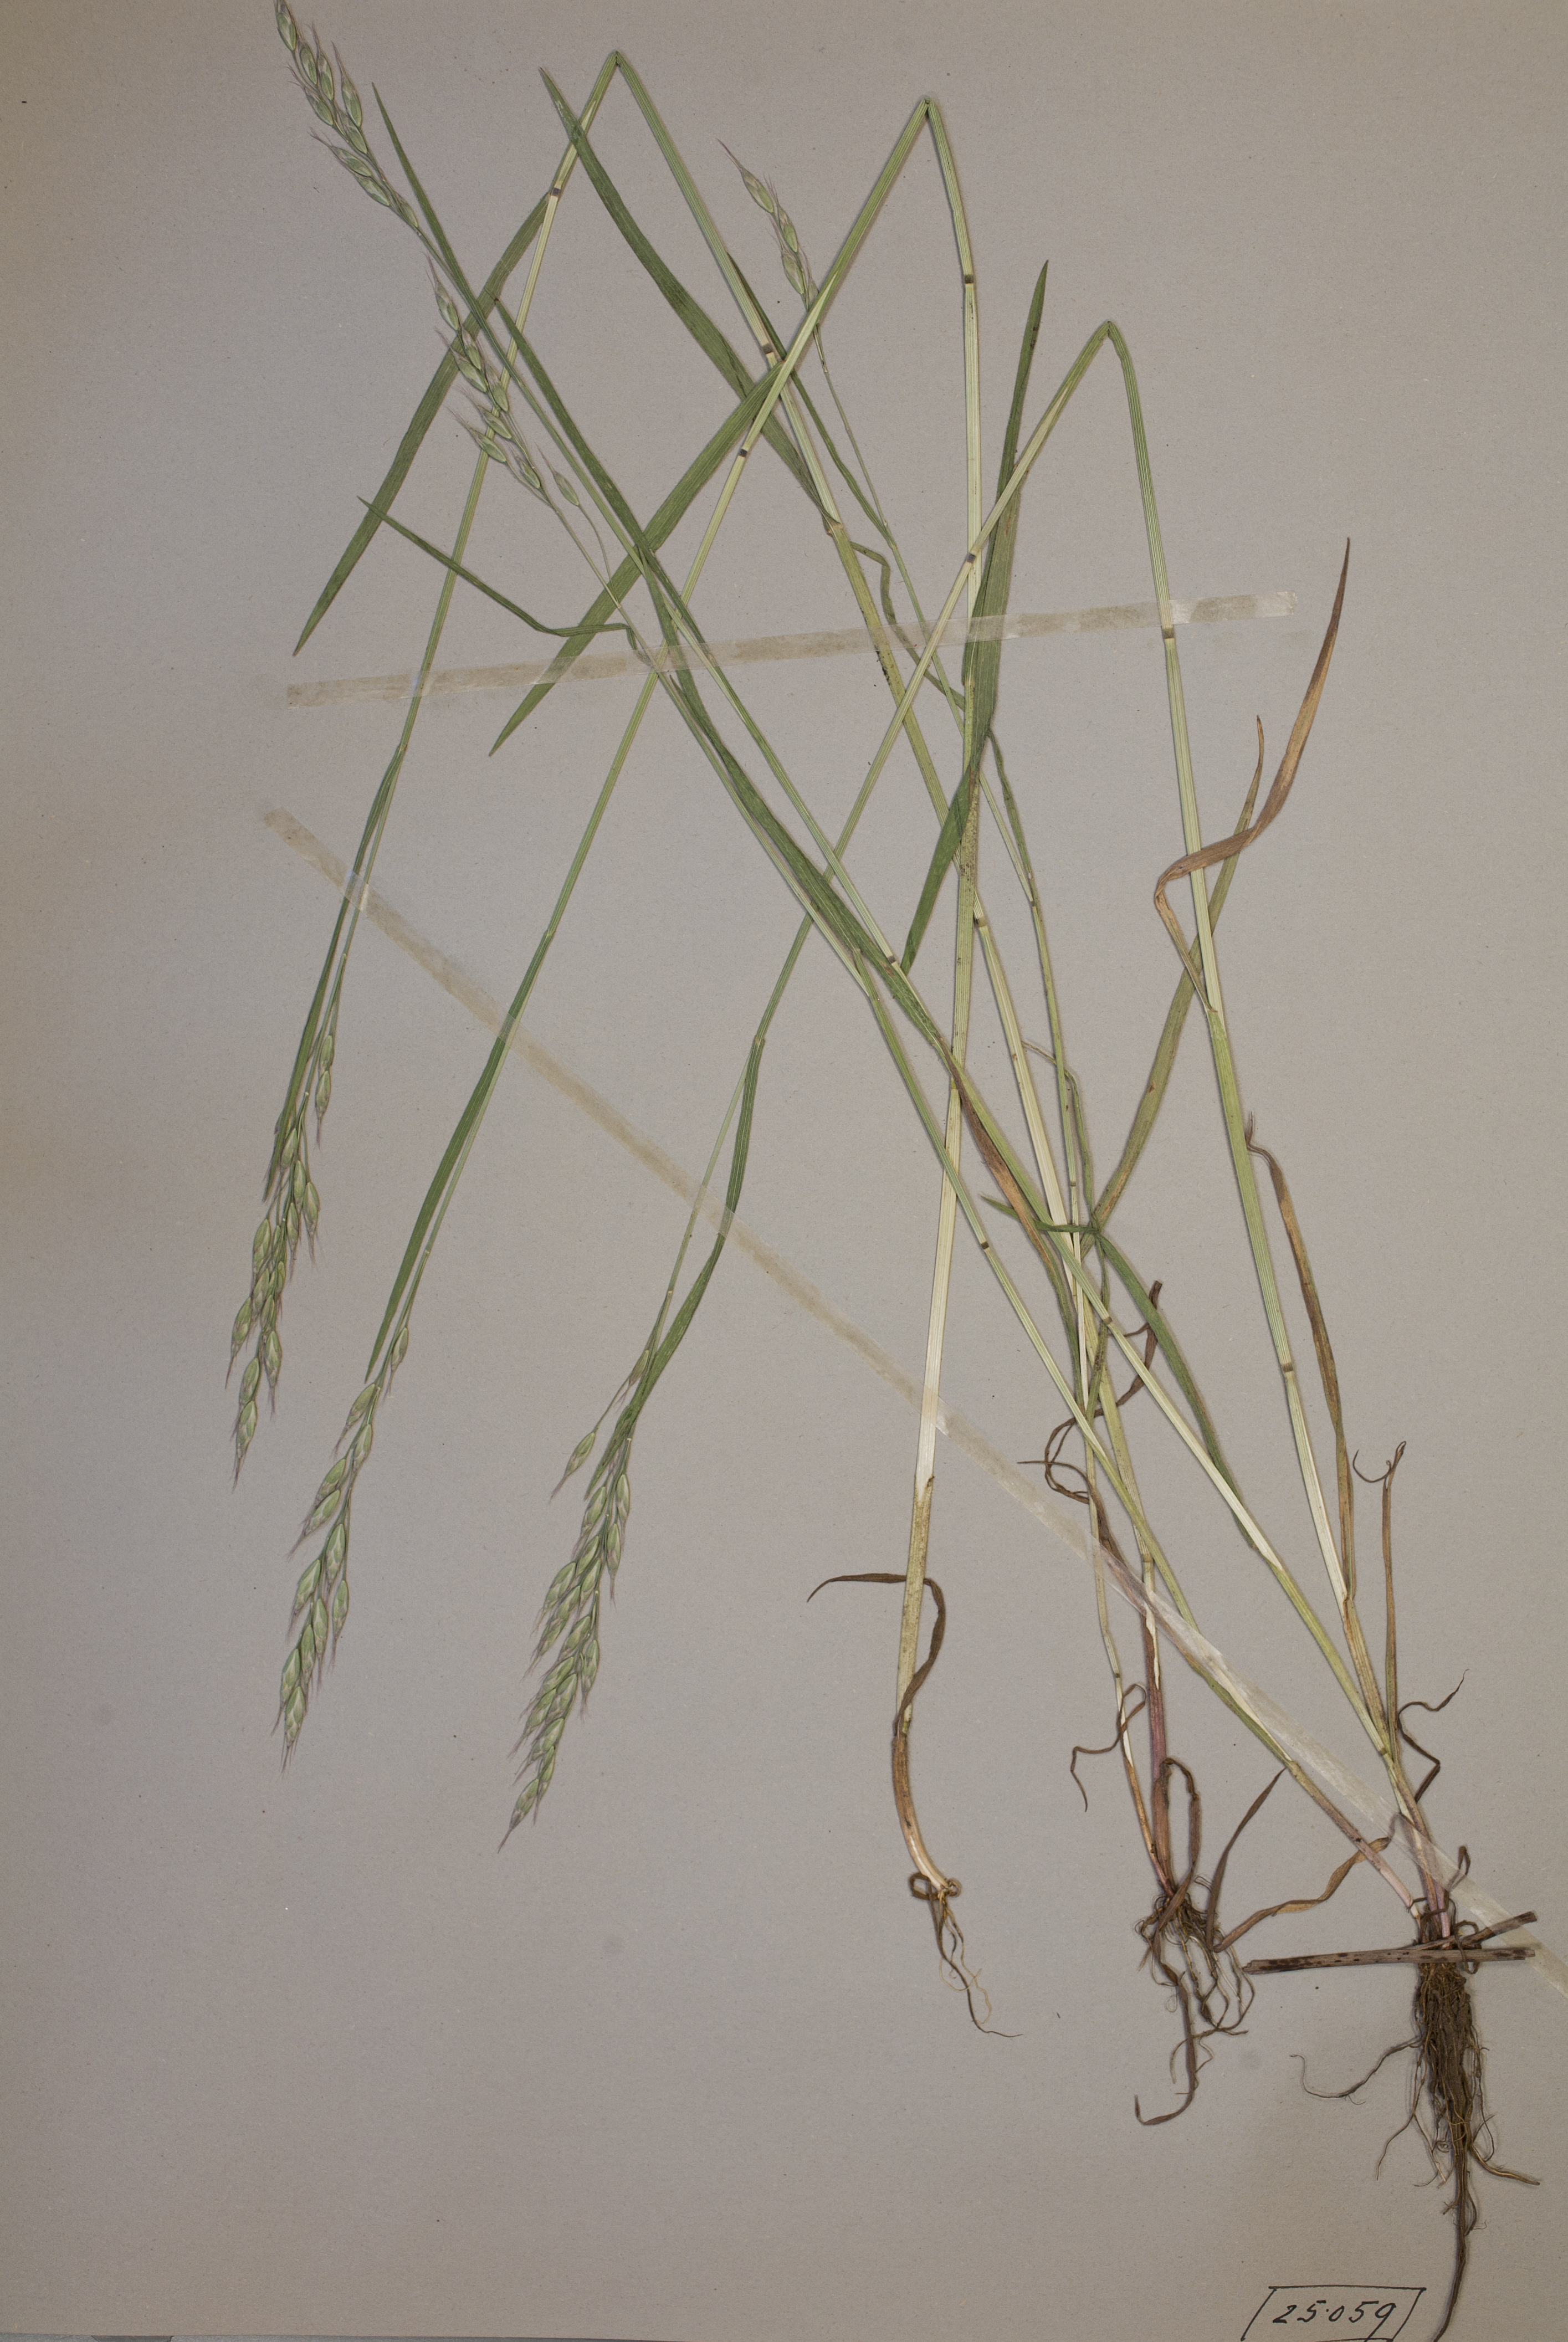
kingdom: Plantae
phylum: Tracheophyta
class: Liliopsida
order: Poales
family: Poaceae
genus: Bromus
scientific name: Bromus racemosus
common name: Bald brome
